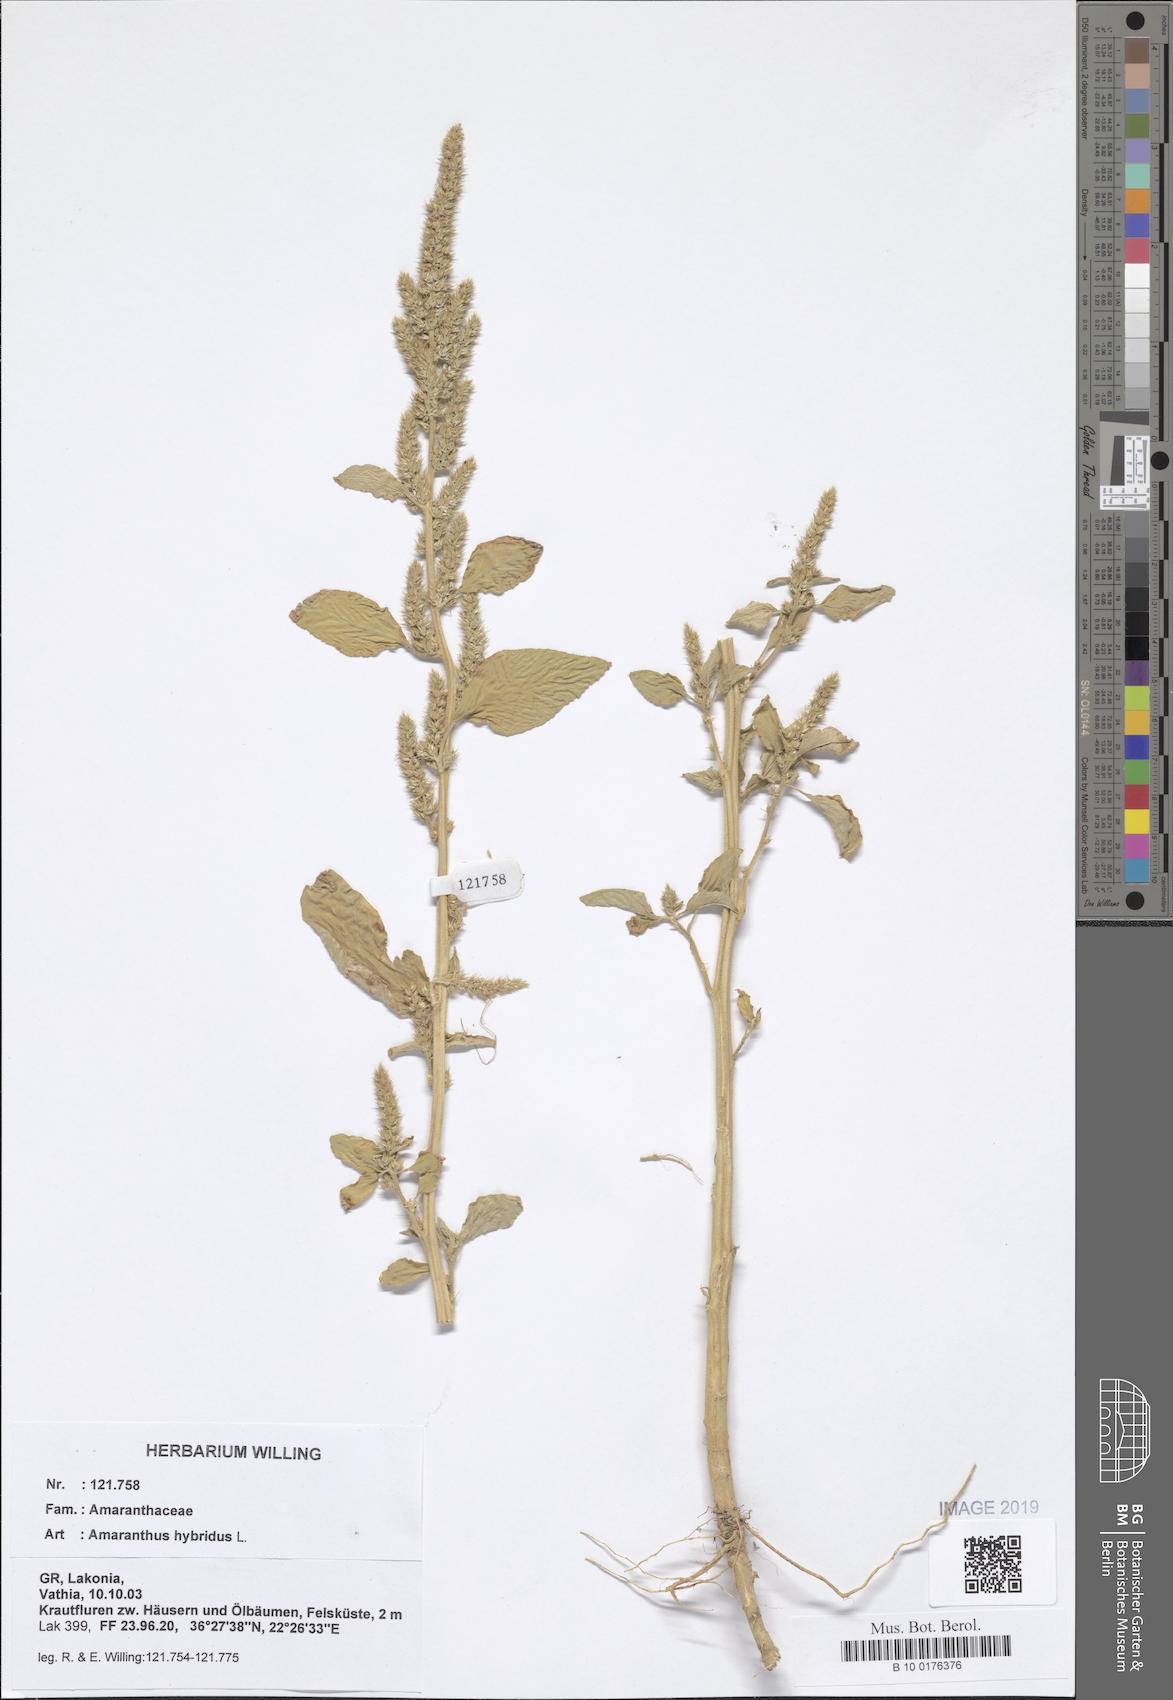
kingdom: Plantae
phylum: Tracheophyta
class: Magnoliopsida
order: Caryophyllales
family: Amaranthaceae
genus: Amaranthus
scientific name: Amaranthus hybridus
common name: Green amaranth
